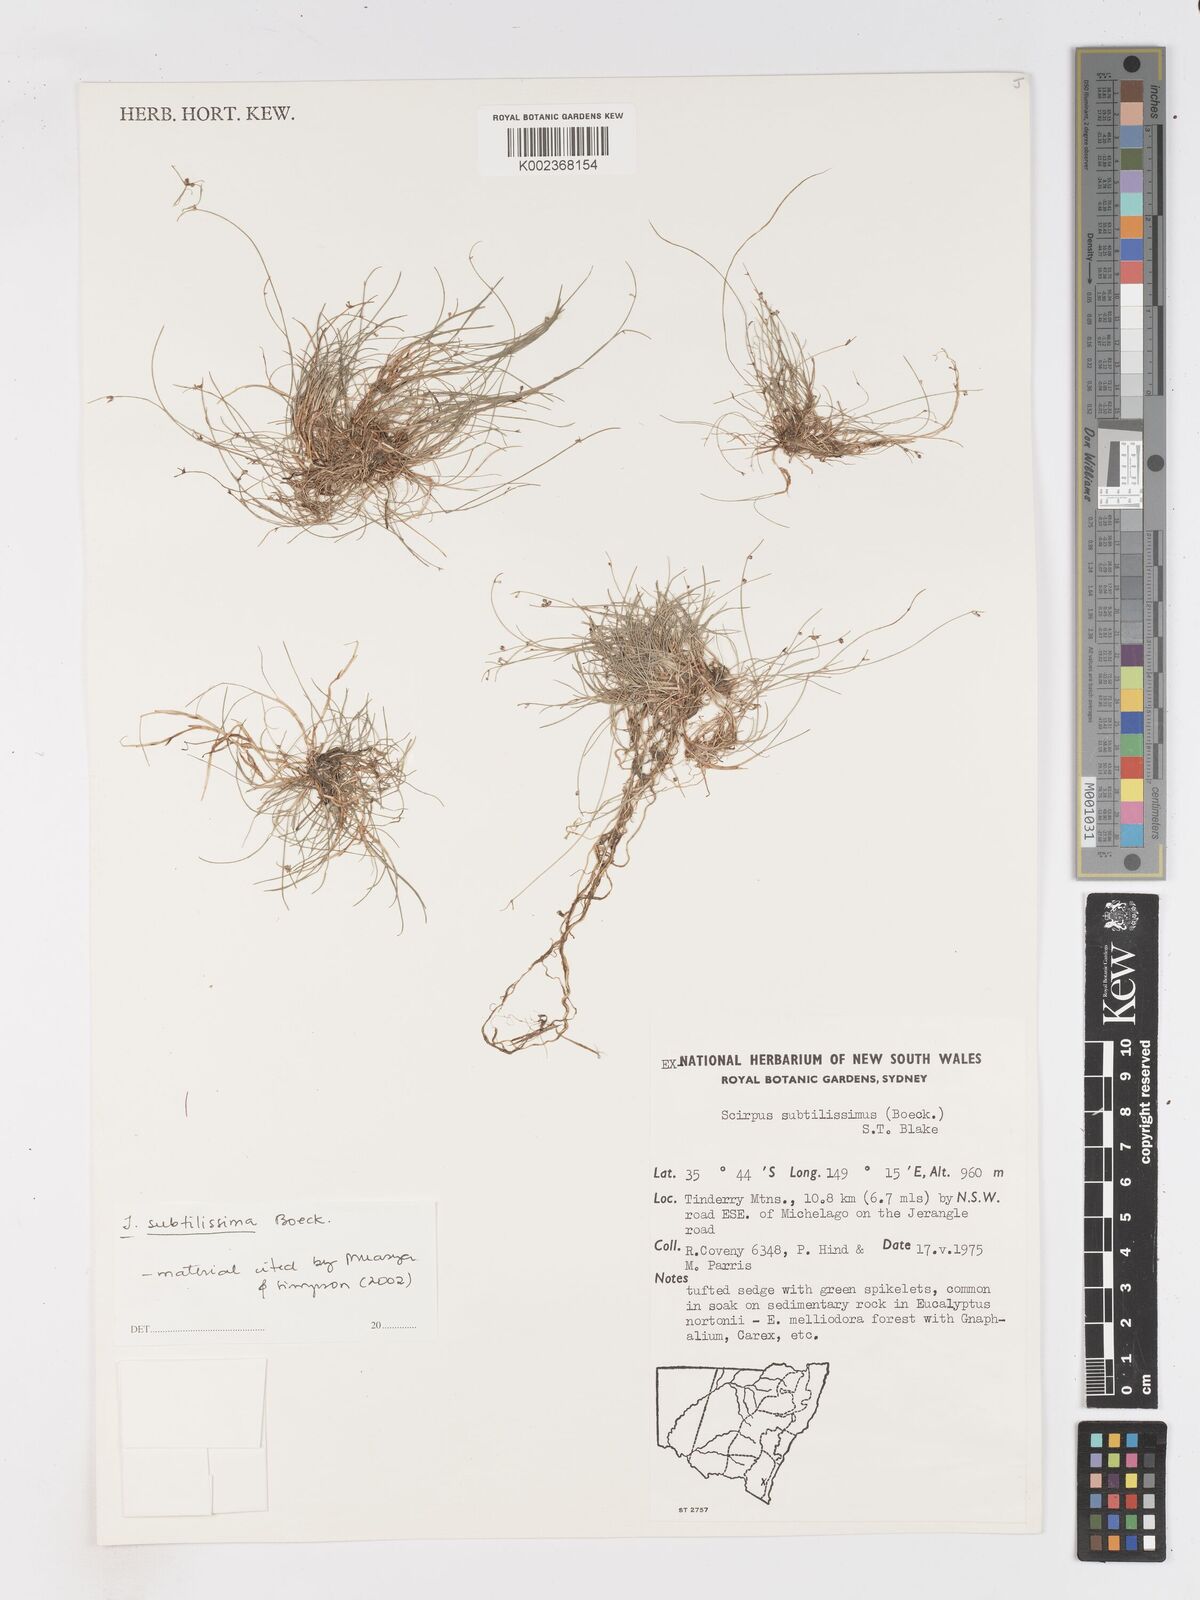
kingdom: Plantae
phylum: Tracheophyta
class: Liliopsida
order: Poales
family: Cyperaceae
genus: Isolepis
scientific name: Isolepis subtilissima
